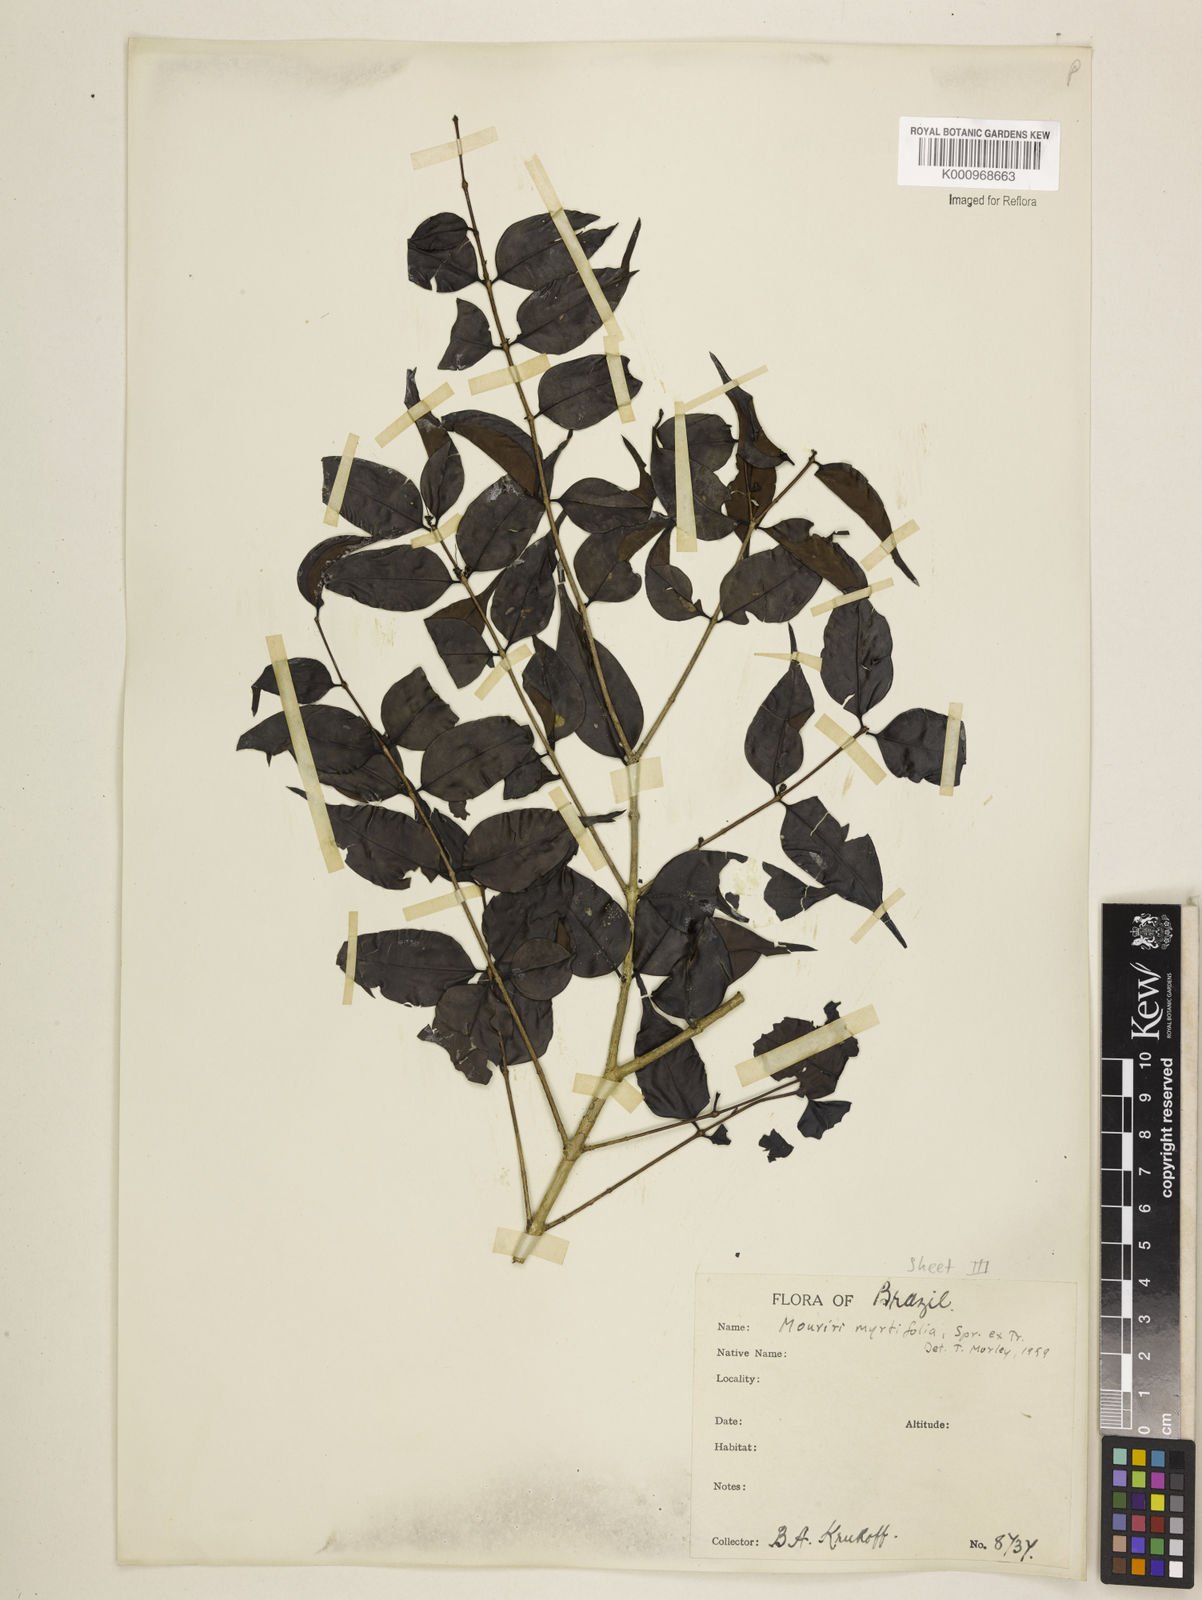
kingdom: Plantae
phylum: Tracheophyta
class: Magnoliopsida
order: Myrtales
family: Melastomataceae
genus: Mouriri
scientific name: Mouriri myrtifolia
